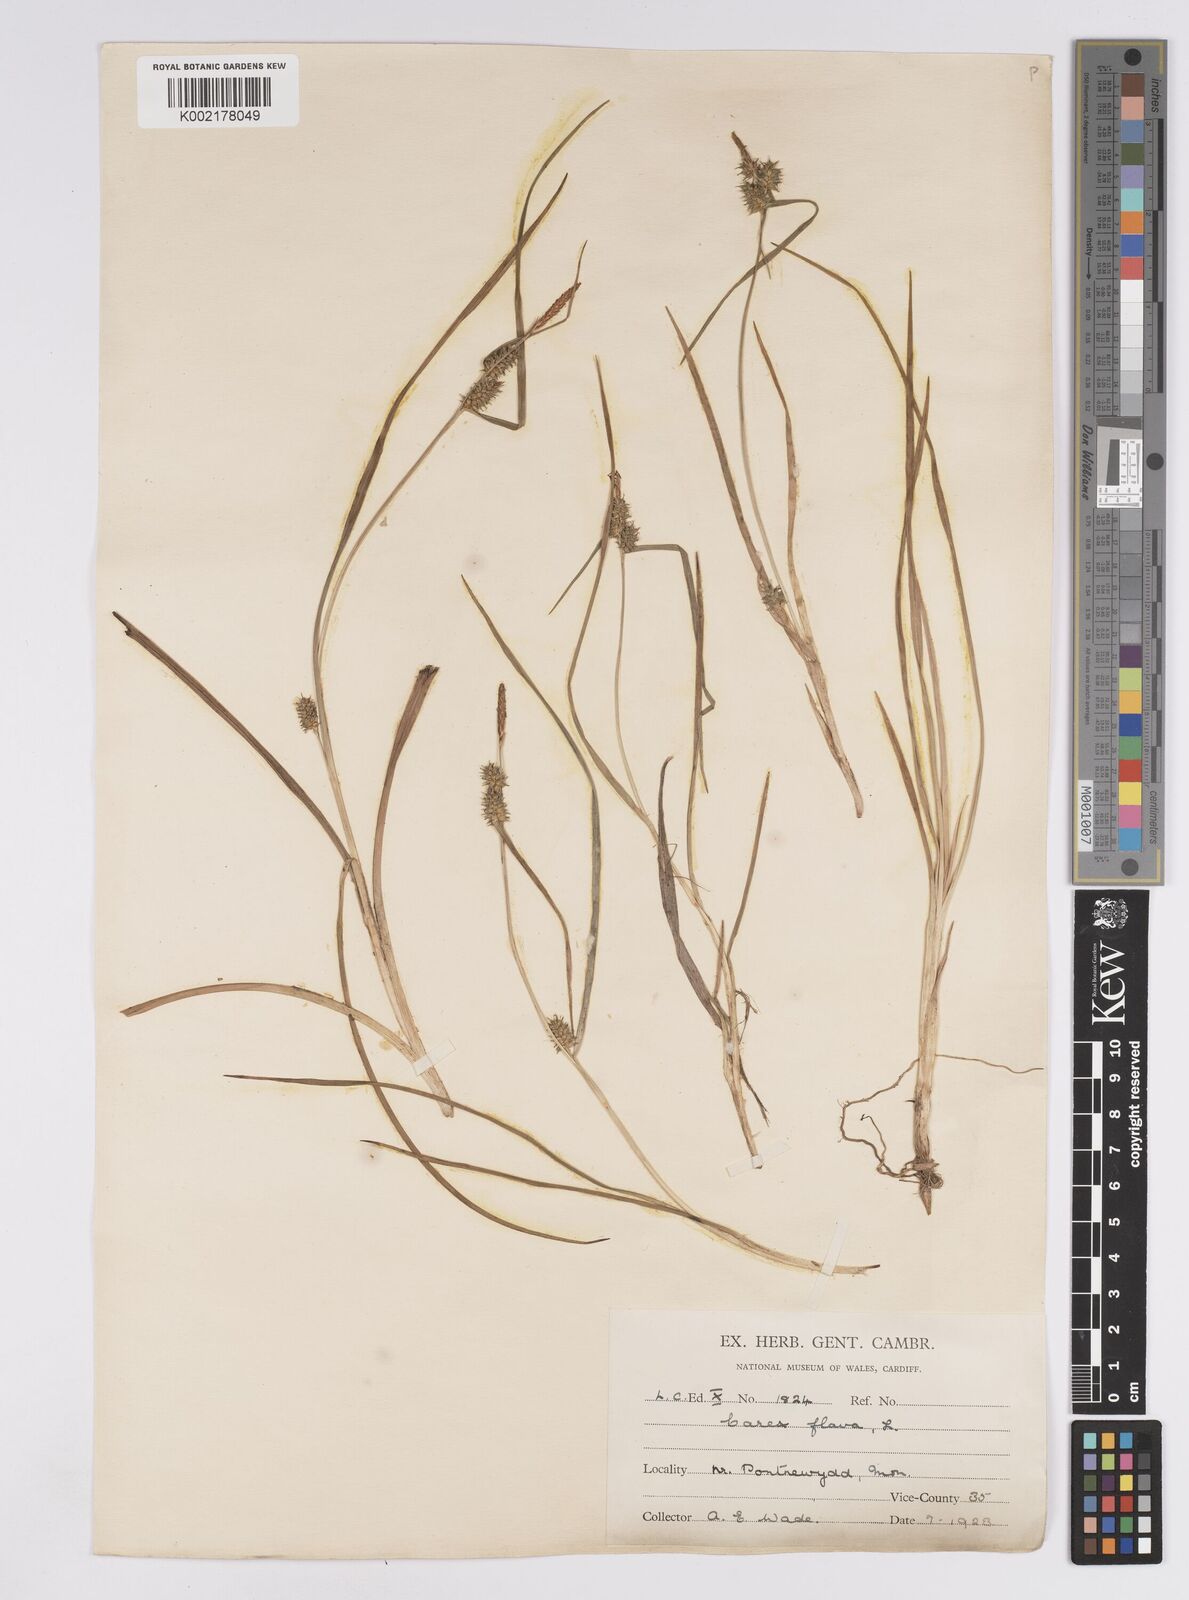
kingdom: Plantae
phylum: Tracheophyta
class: Liliopsida
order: Poales
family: Cyperaceae
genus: Carex
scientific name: Carex demissa
